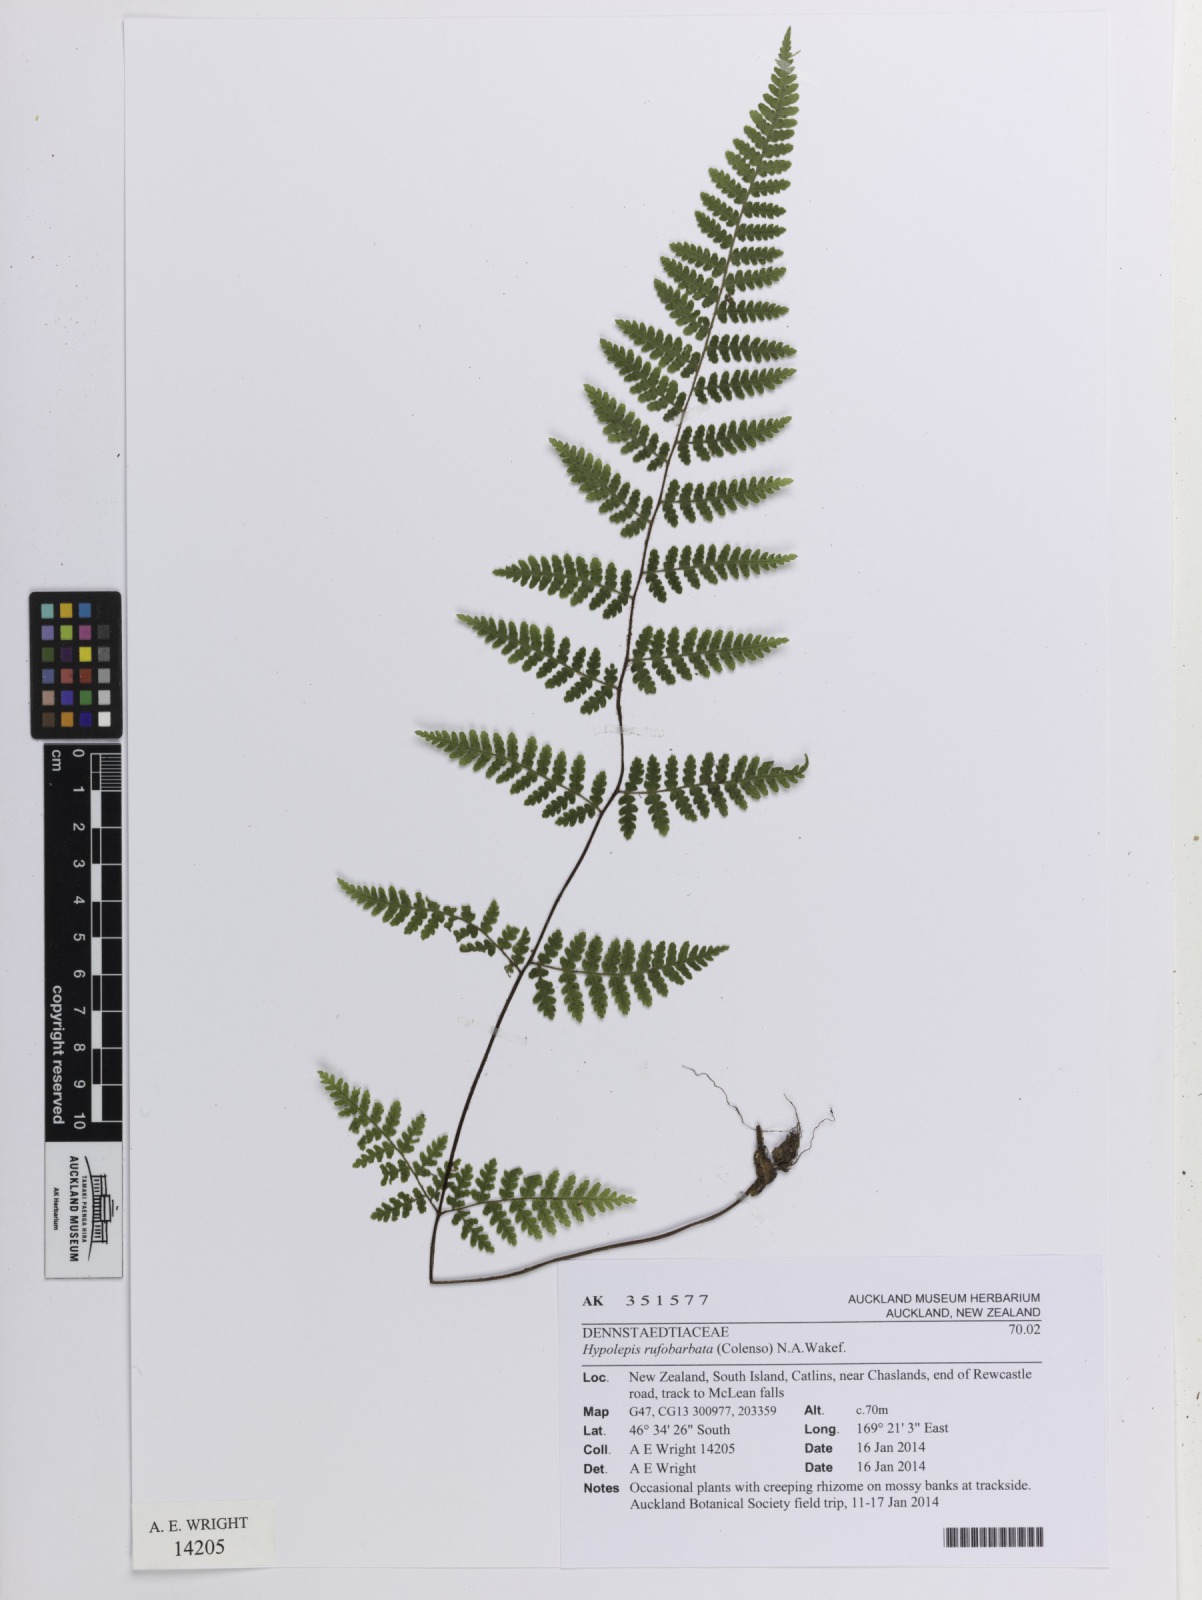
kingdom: Plantae
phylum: Tracheophyta
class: Polypodiopsida
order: Polypodiales
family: Dennstaedtiaceae
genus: Hypolepis
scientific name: Hypolepis rugosula
